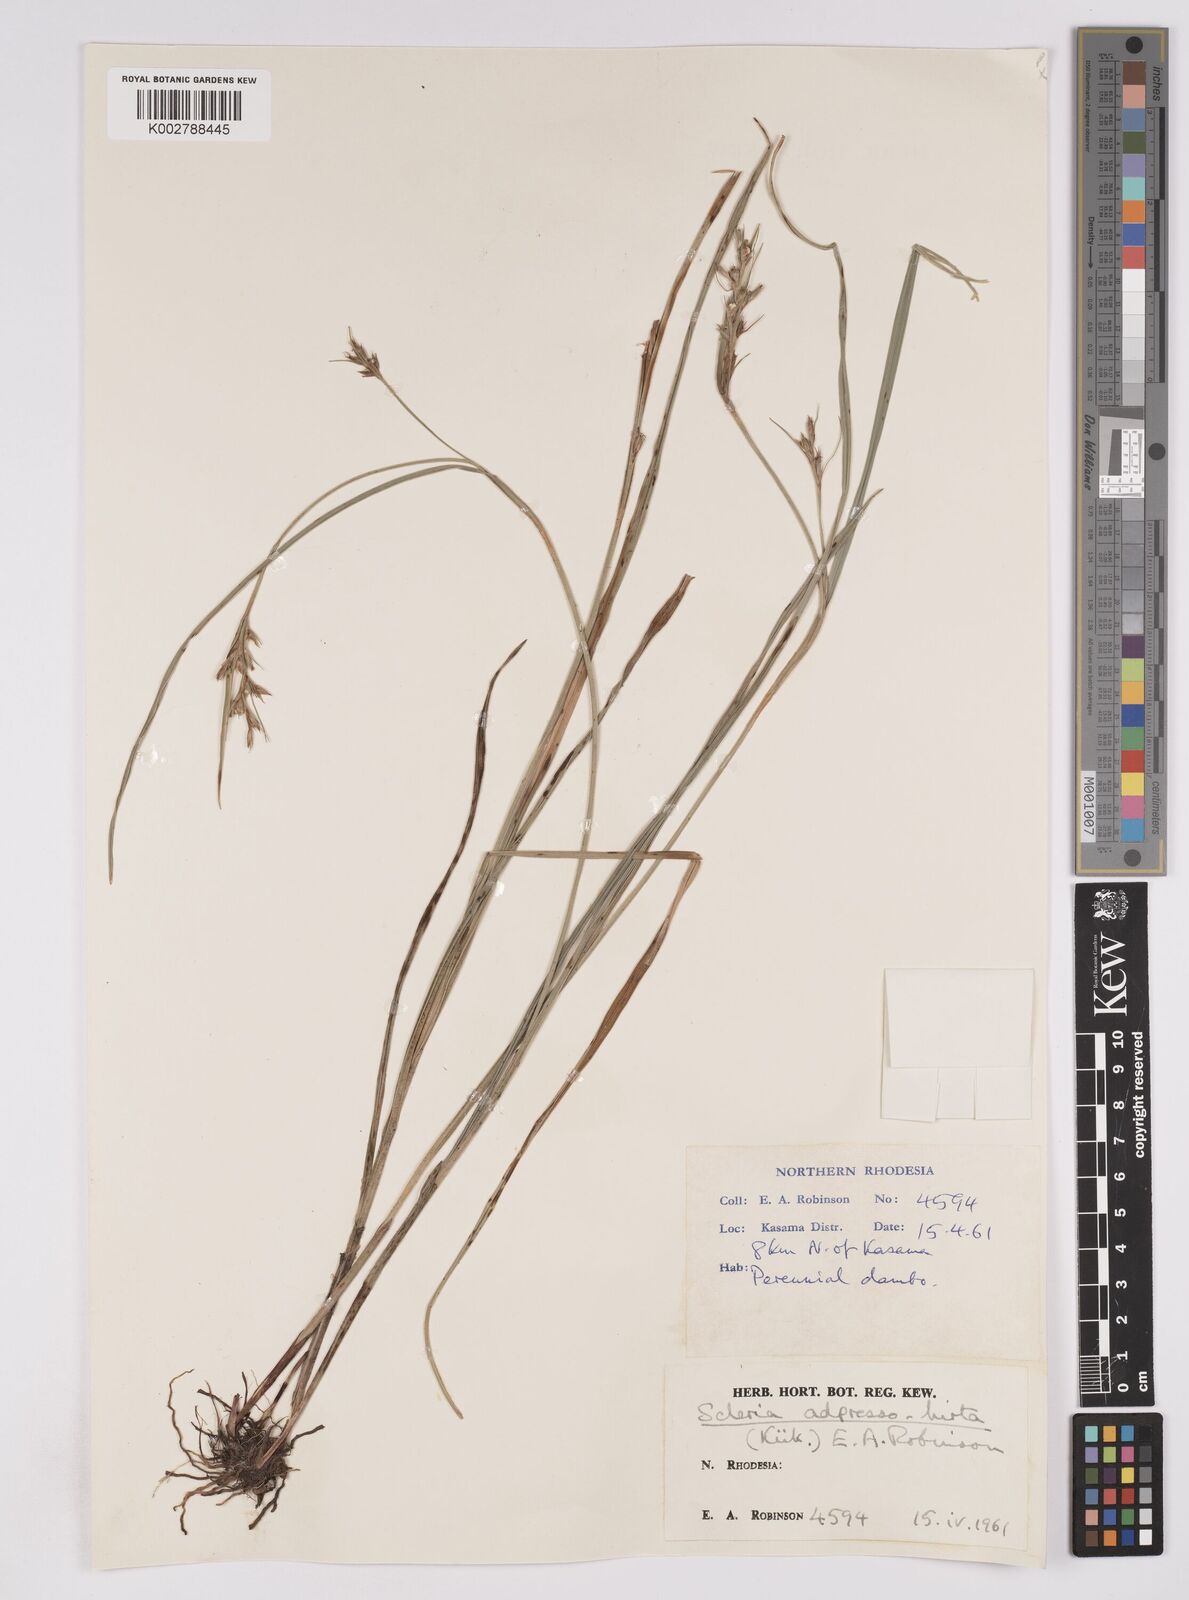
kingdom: Plantae
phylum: Tracheophyta
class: Liliopsida
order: Poales
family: Cyperaceae
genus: Scleria
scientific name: Scleria adpressohirta
